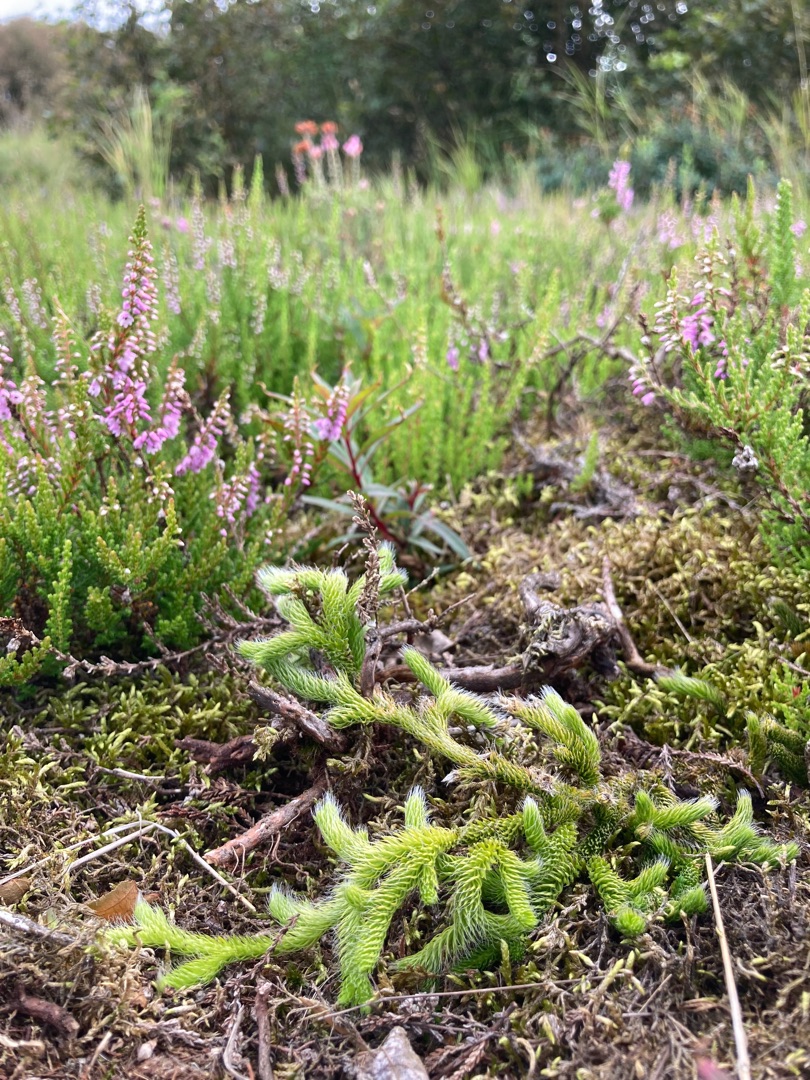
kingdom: Plantae
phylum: Tracheophyta
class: Lycopodiopsida
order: Lycopodiales
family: Lycopodiaceae
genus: Lycopodium
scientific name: Lycopodium clavatum
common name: Almindelig ulvefod
